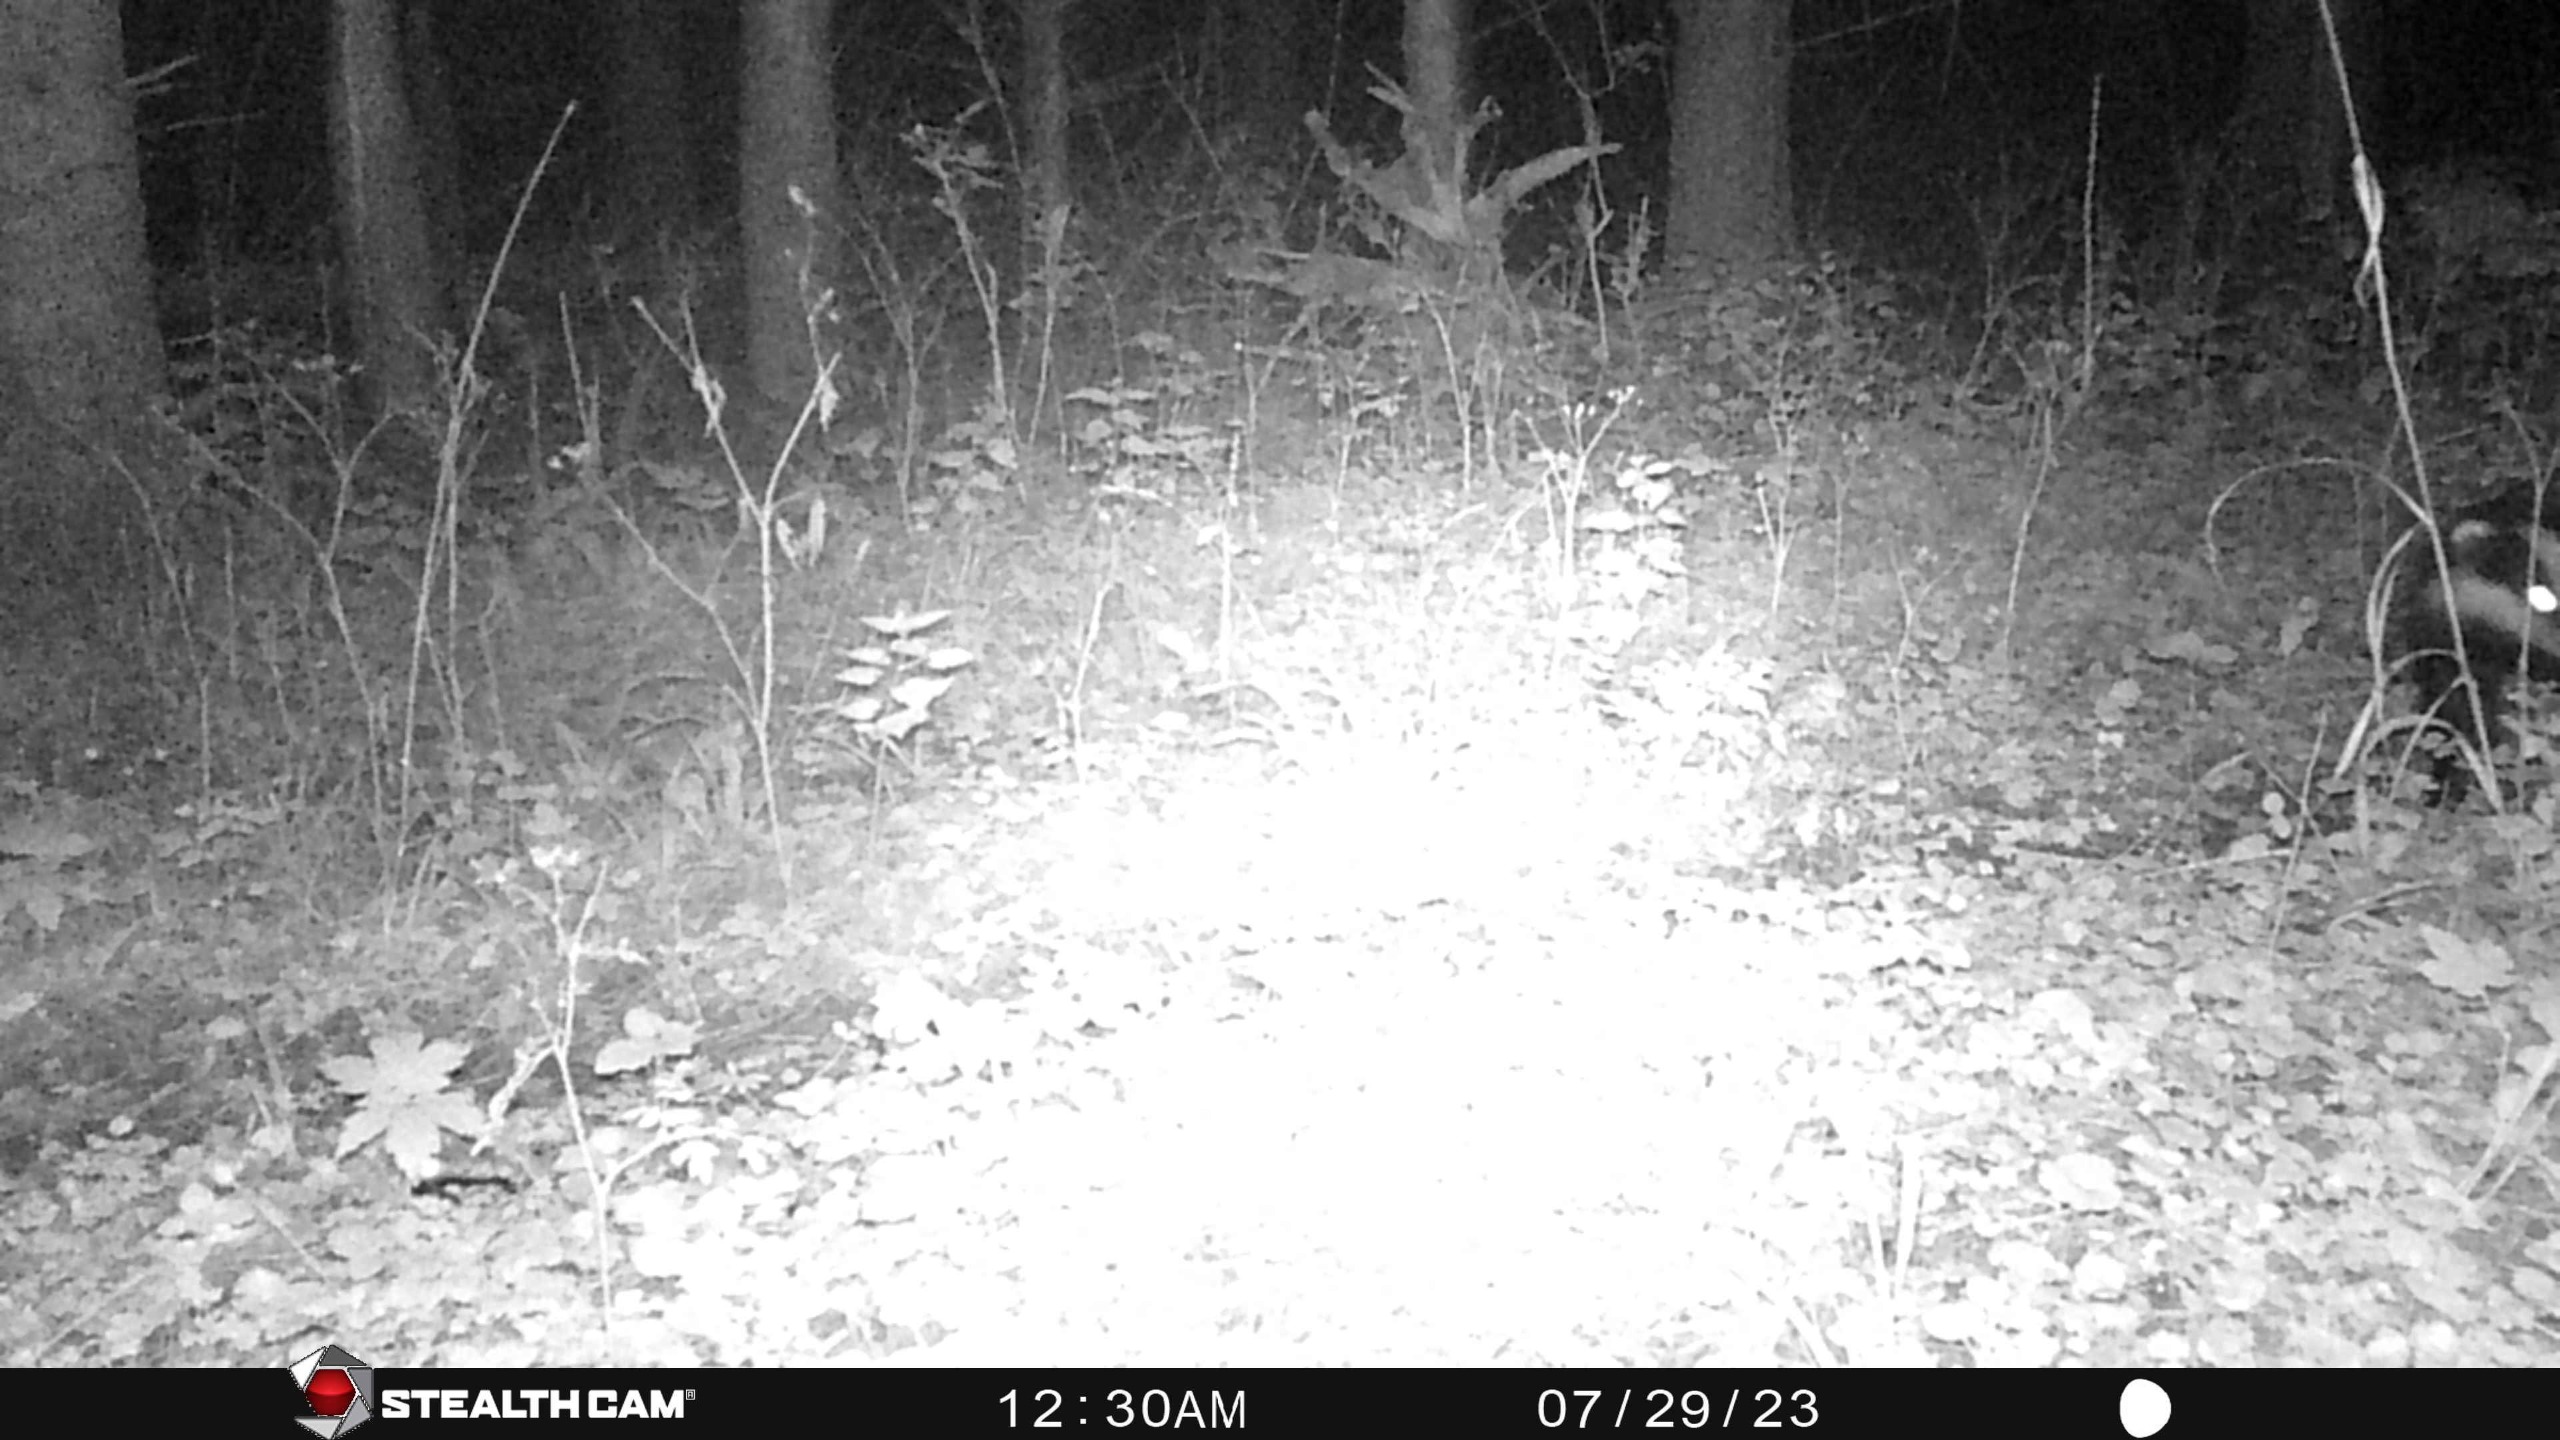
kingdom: Animalia
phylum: Chordata
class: Mammalia
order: Carnivora
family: Mustelidae
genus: Meles
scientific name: Meles meles
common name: Grævling
